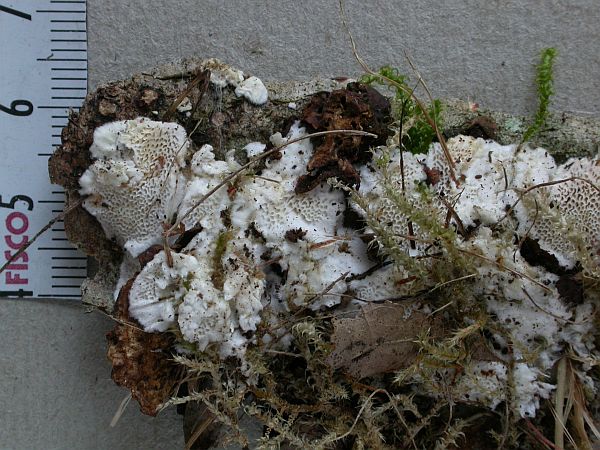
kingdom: Fungi
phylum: Basidiomycota
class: Agaricomycetes
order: Polyporales
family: Gelatoporiaceae
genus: Cinereomyces
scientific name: Cinereomyces lindbladii
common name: almindelig gråporesvamp
